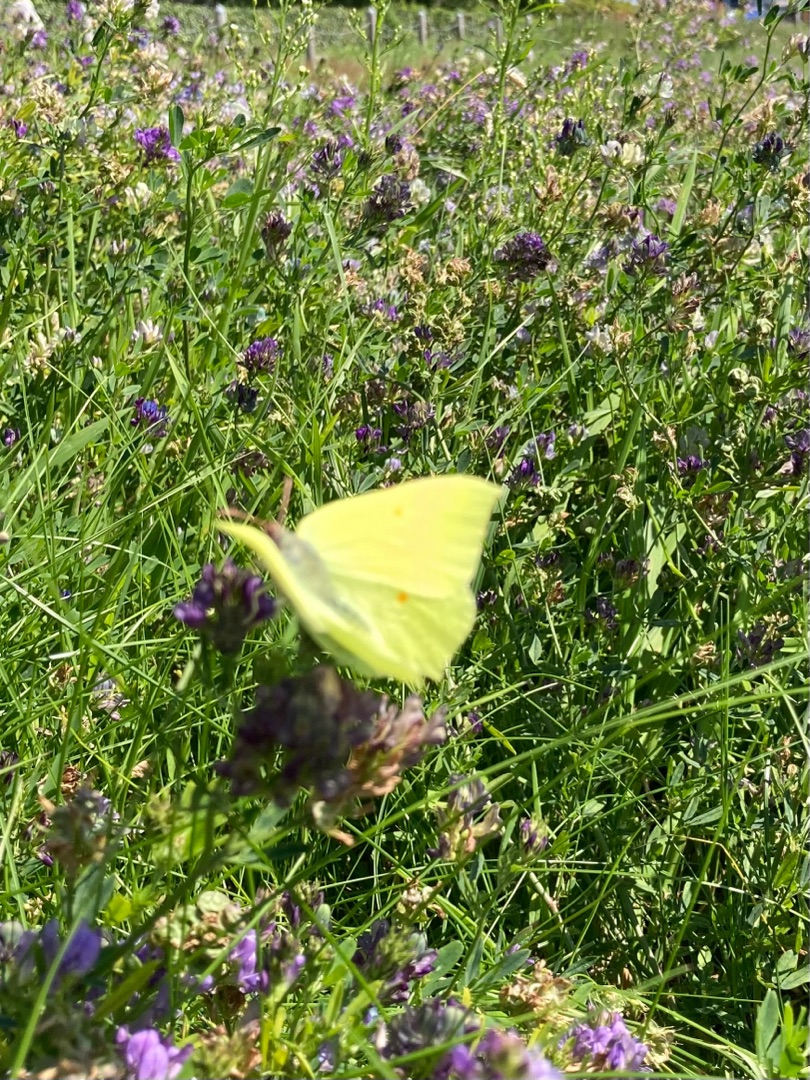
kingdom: Animalia
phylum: Arthropoda
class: Insecta
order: Lepidoptera
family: Pieridae
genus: Gonepteryx
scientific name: Gonepteryx rhamni
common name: Citronsommerfugl
